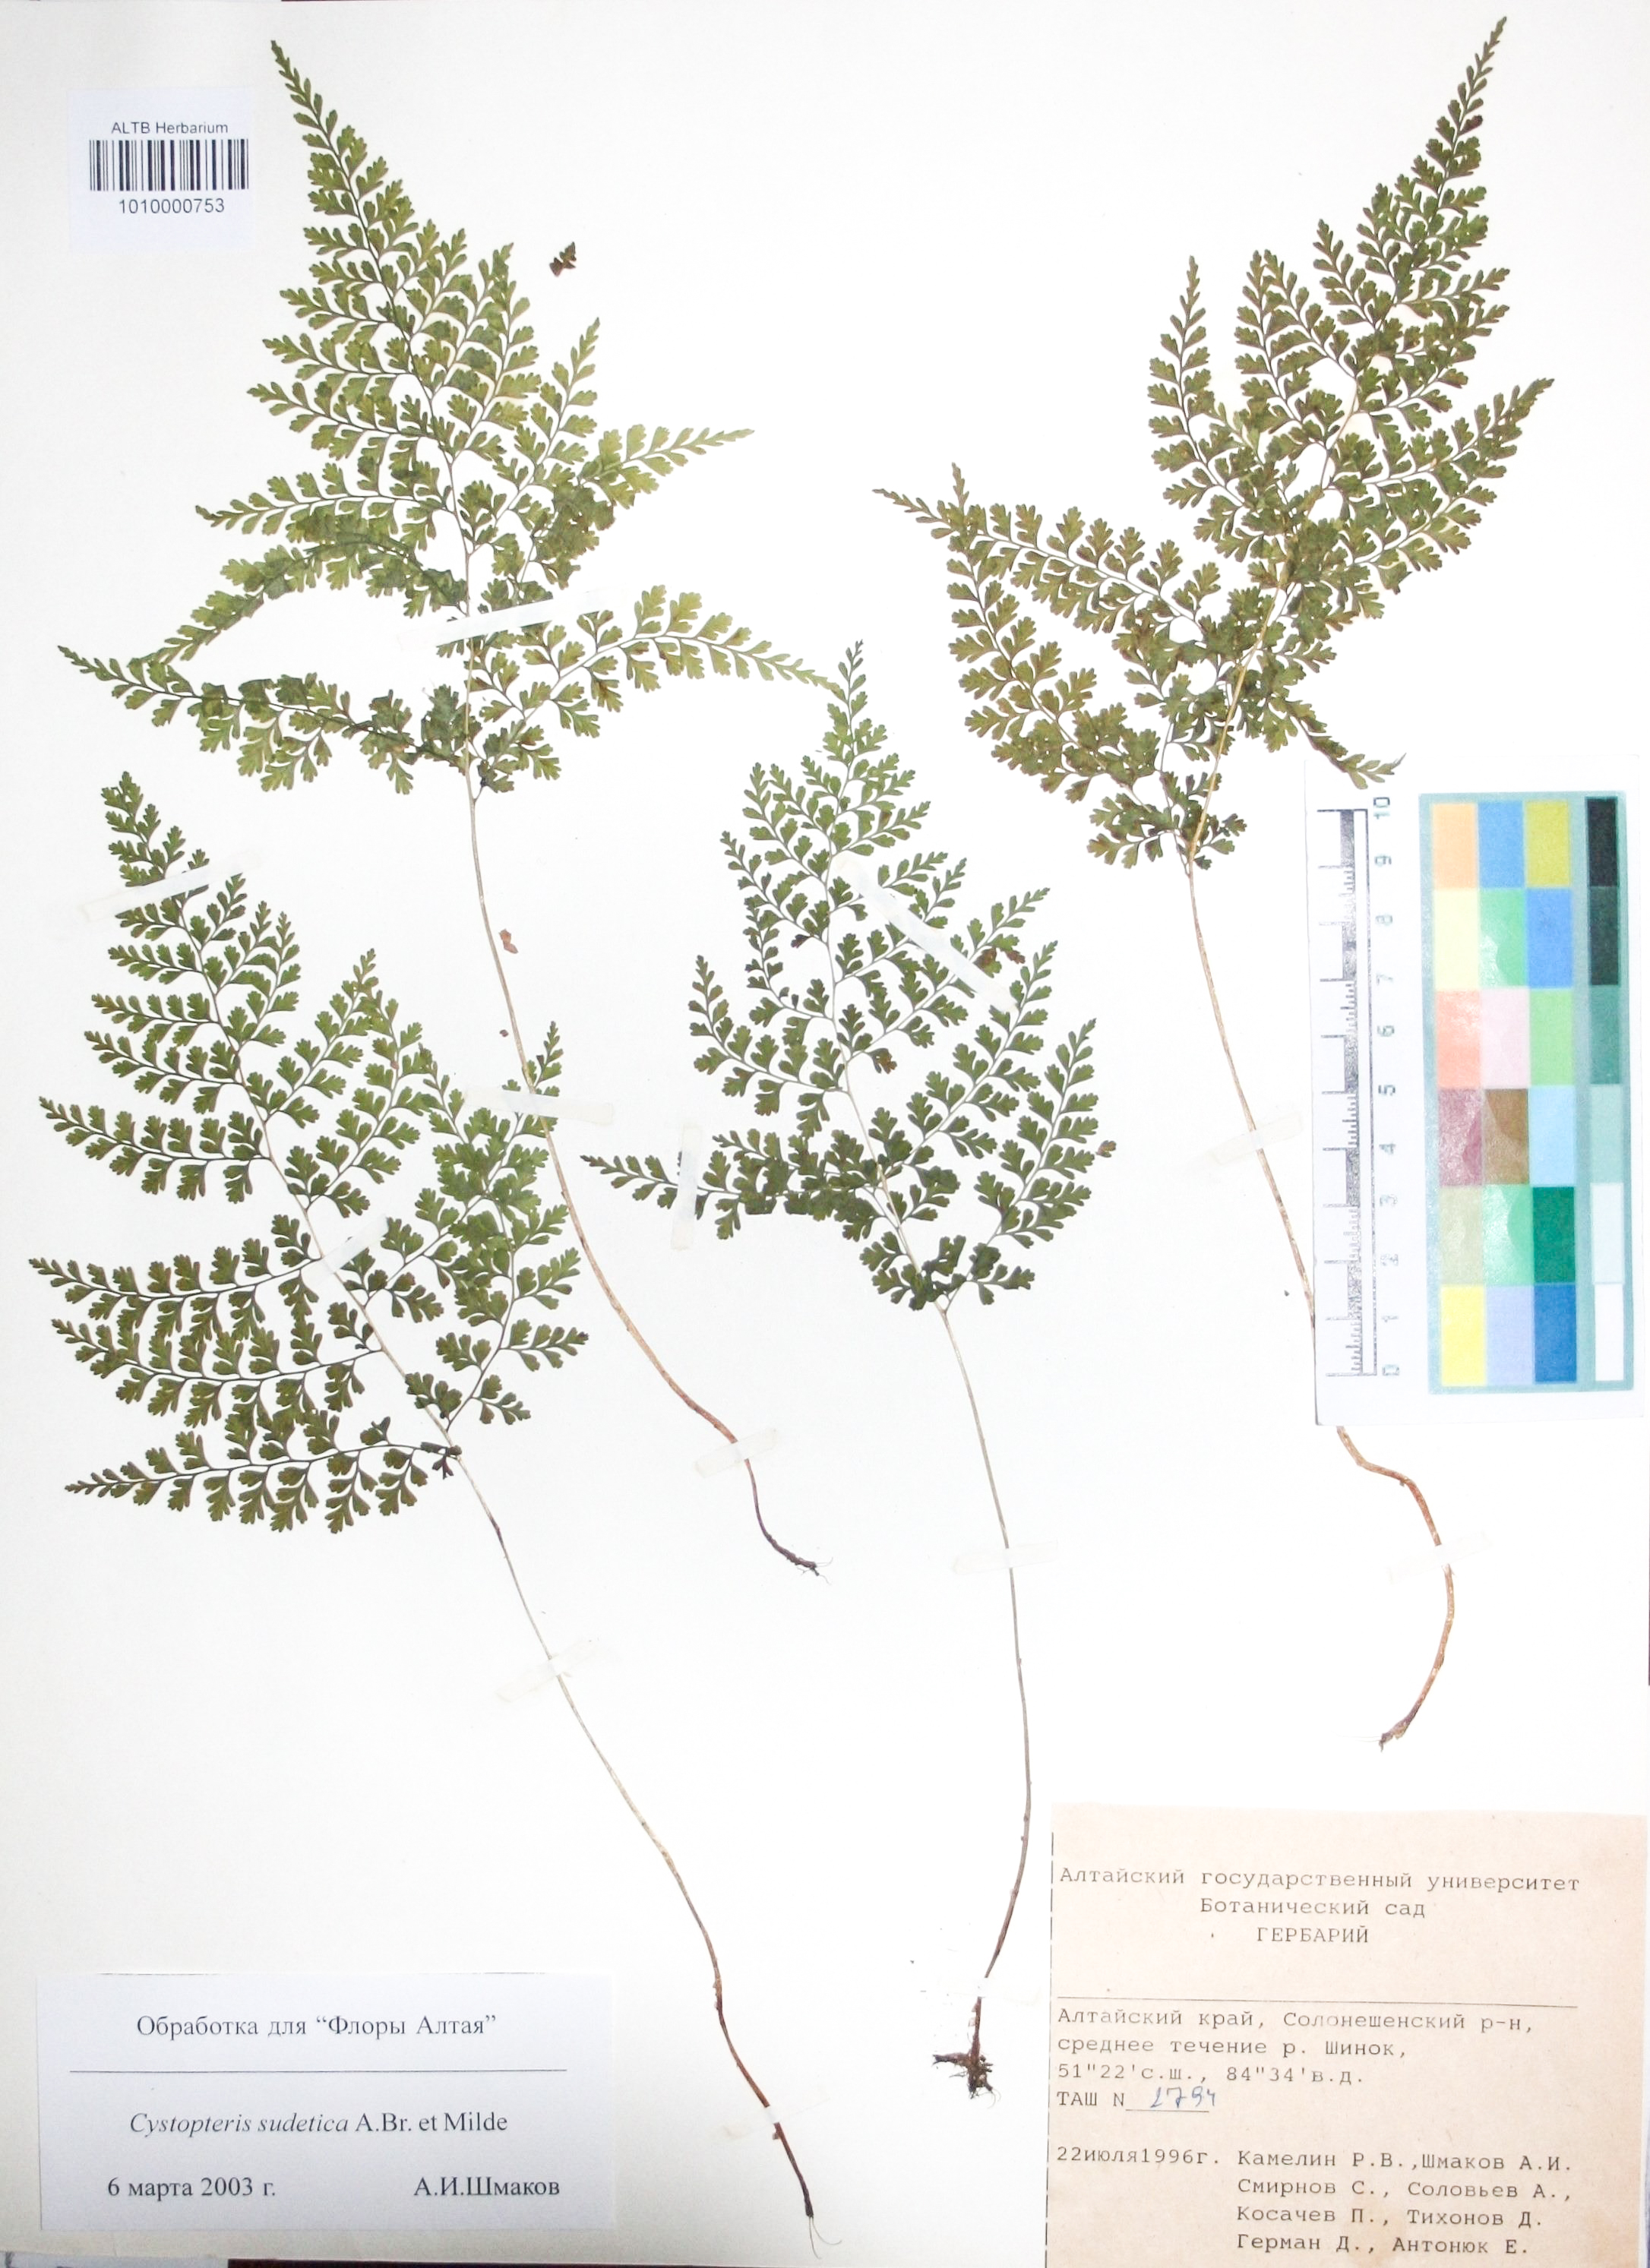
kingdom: Plantae
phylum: Tracheophyta
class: Polypodiopsida
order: Polypodiales
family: Cystopteridaceae
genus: Cystopteris
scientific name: Cystopteris sudetica
